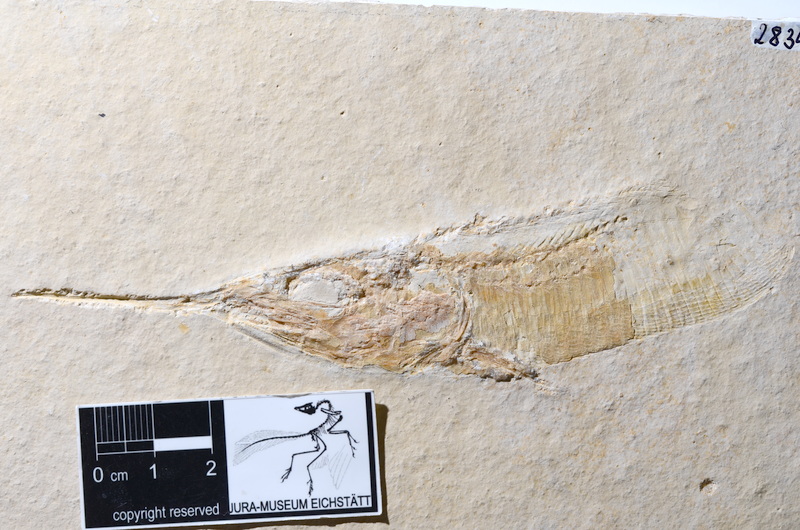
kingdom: Animalia
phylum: Chordata
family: Aspidorhynchidae
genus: Aspidorhynchus
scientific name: Aspidorhynchus acutirostris
